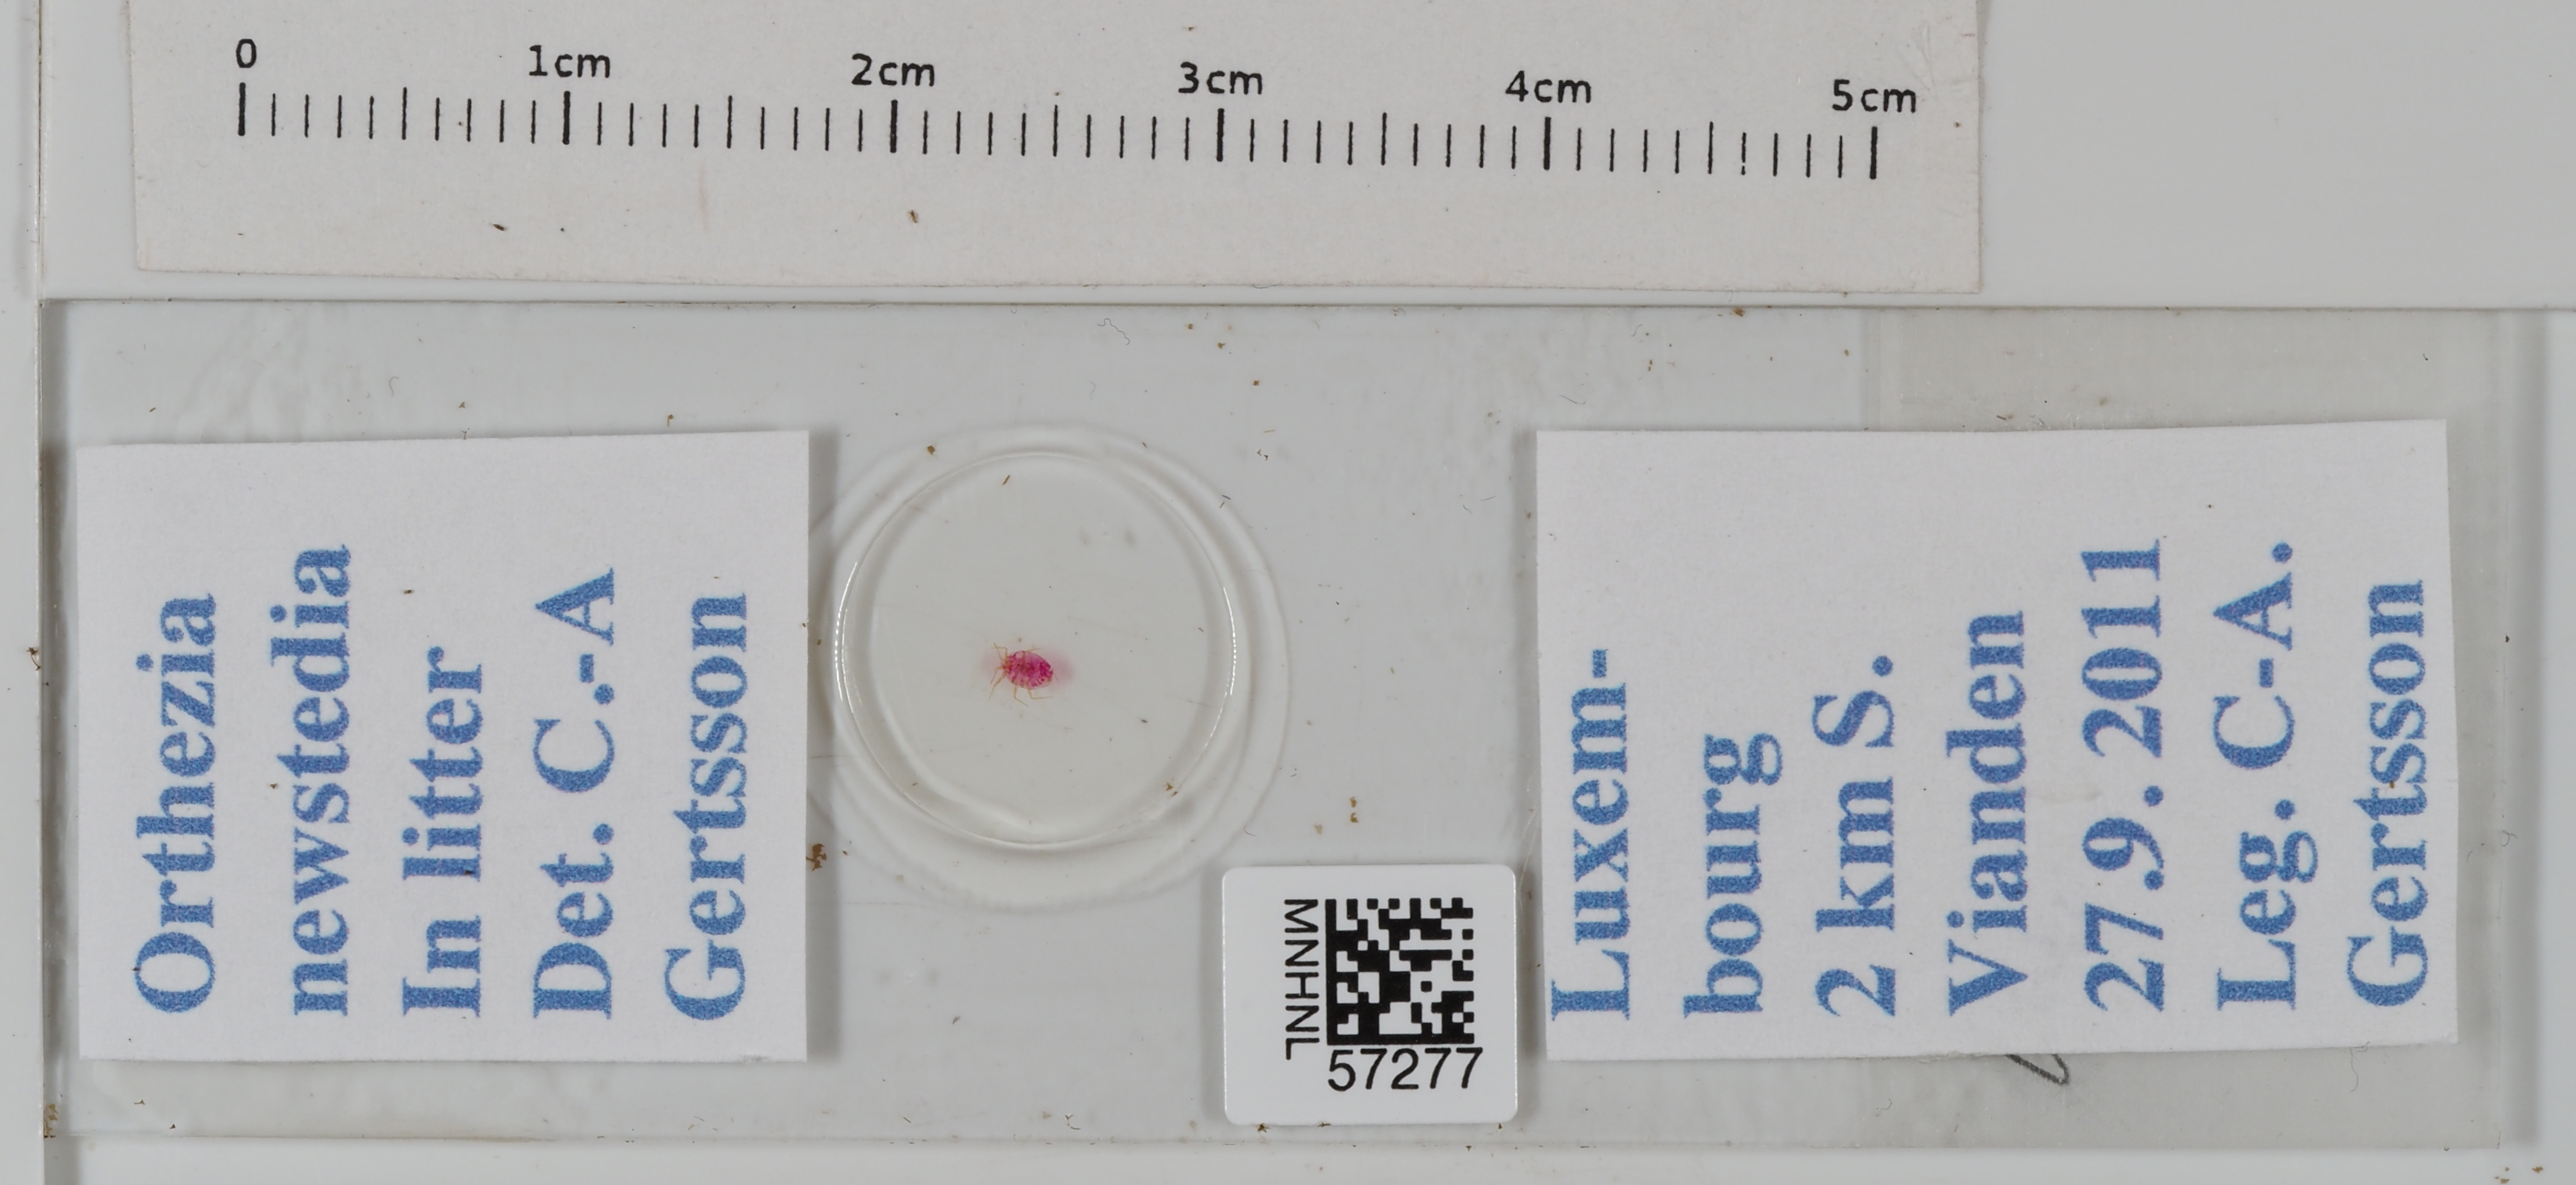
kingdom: Animalia
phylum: Arthropoda
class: Insecta
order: Hemiptera
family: Ortheziidae
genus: Newsteadia
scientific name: Newsteadia floccosa
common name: Boreal ensign scale
